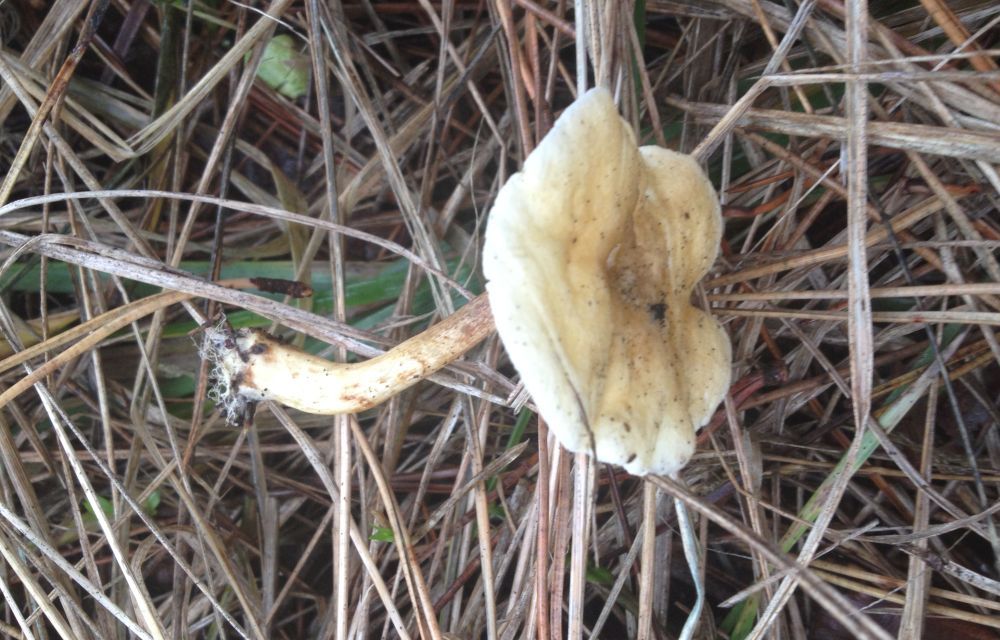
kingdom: Fungi
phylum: Basidiomycota
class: Agaricomycetes
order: Boletales
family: Hygrophoropsidaceae
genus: Hygrophoropsis
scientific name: Hygrophoropsis pallida
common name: bleg orangekantarel
